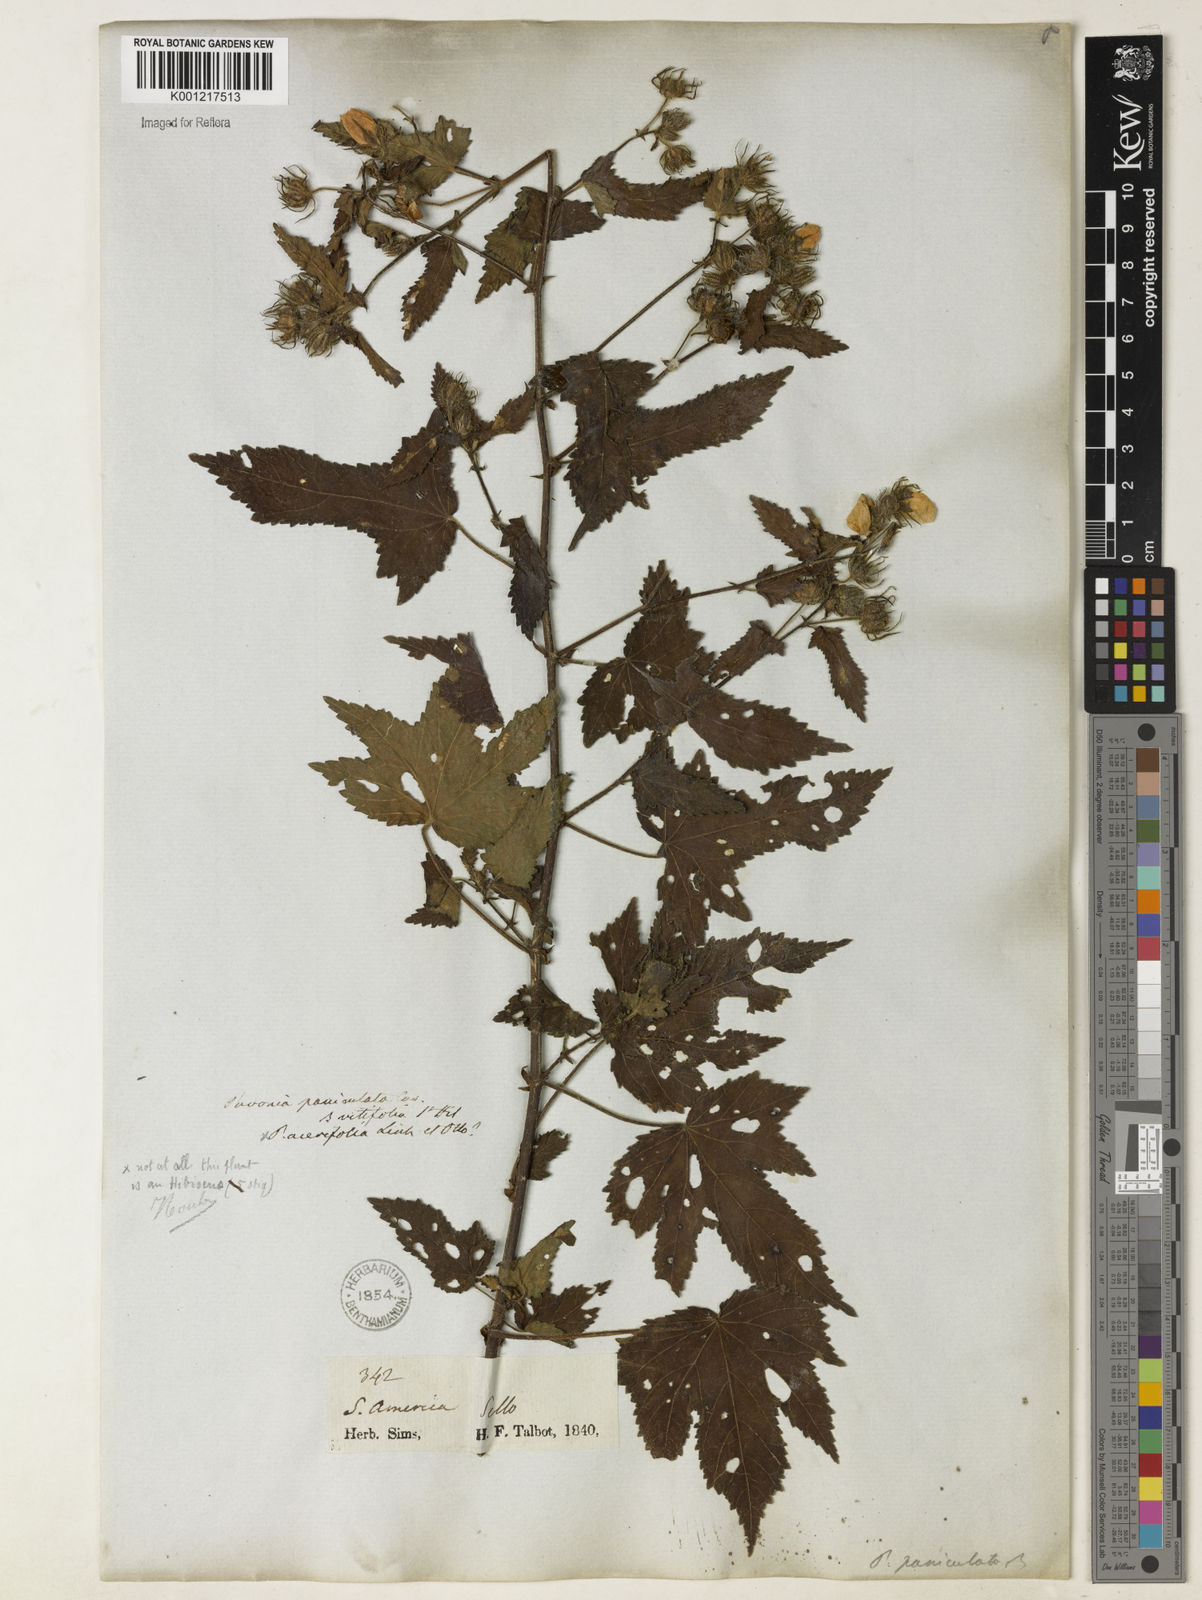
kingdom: Plantae
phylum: Tracheophyta
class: Magnoliopsida
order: Malvales
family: Malvaceae
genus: Pavonia
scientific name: Pavonia
